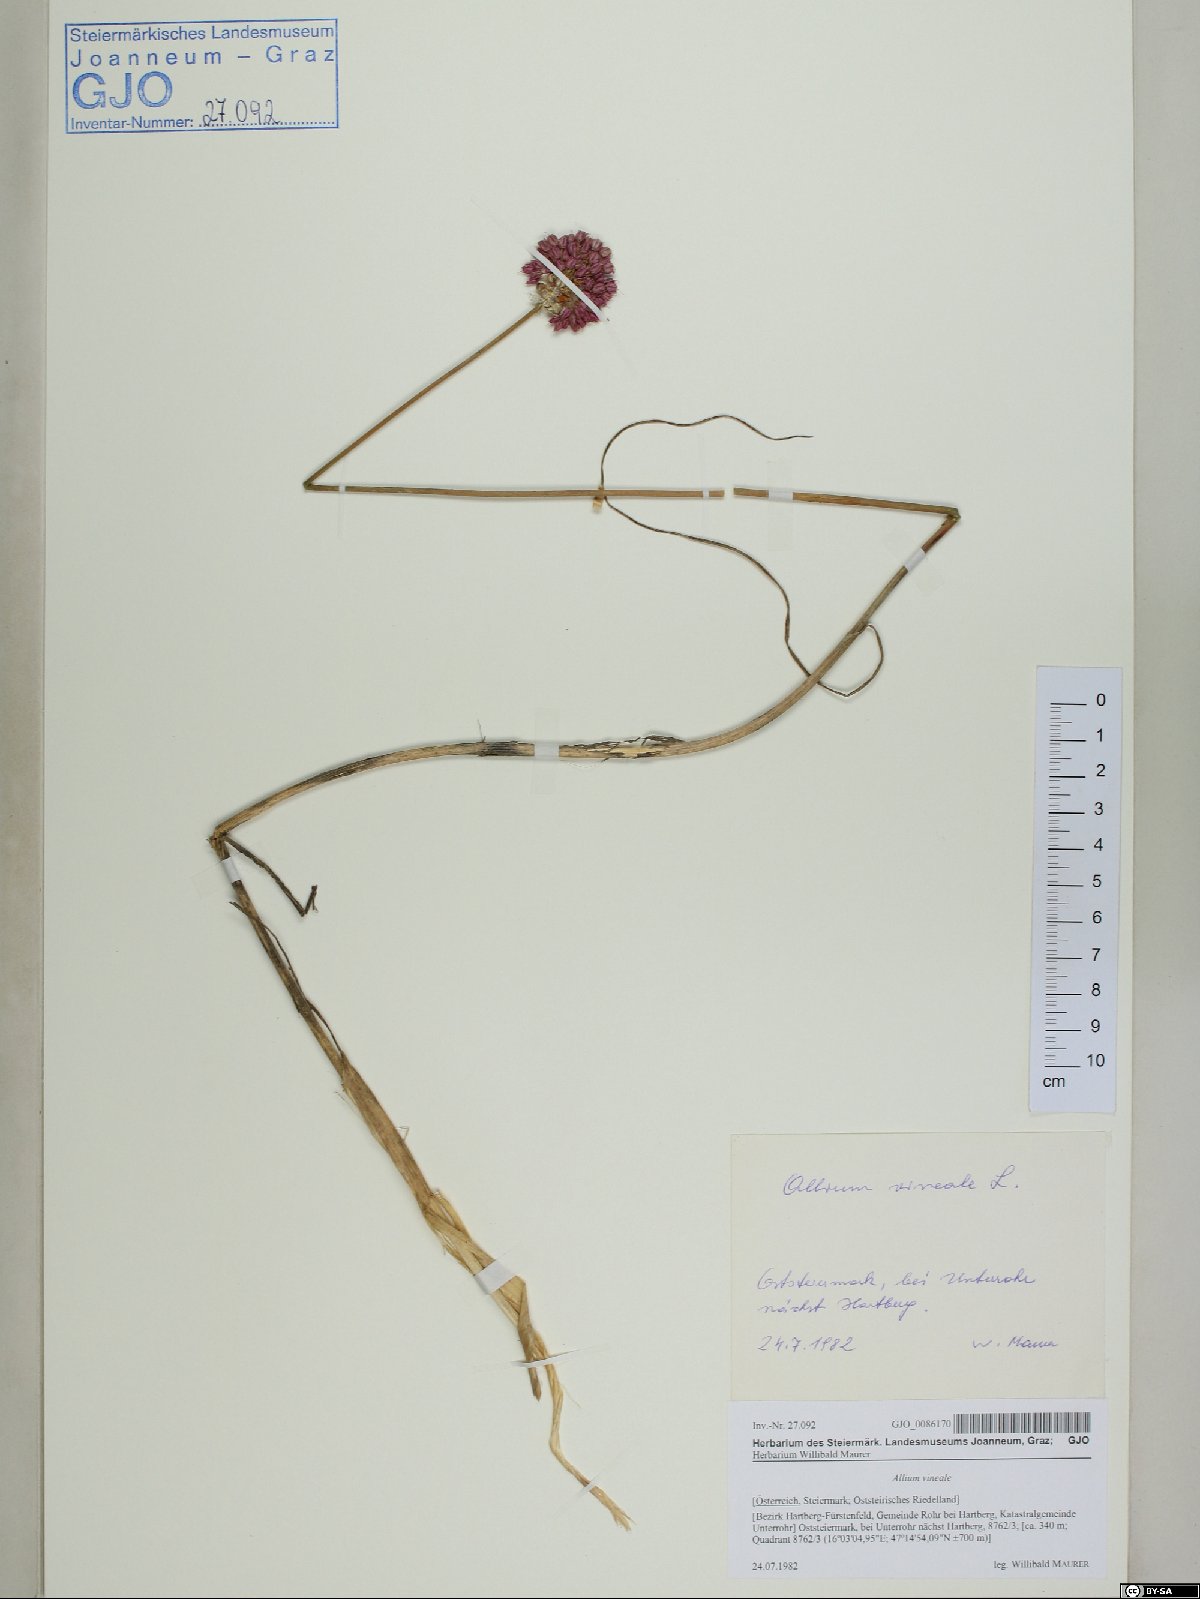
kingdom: Plantae
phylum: Tracheophyta
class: Liliopsida
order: Asparagales
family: Amaryllidaceae
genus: Allium
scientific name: Allium vineale
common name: Crow garlic
